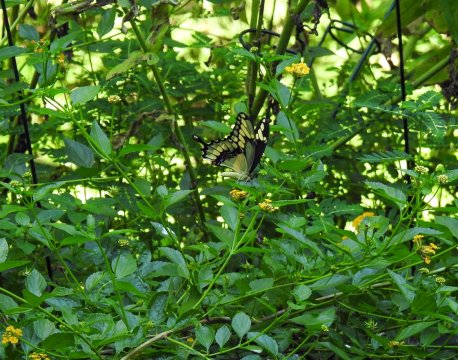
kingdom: Animalia
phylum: Arthropoda
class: Insecta
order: Lepidoptera
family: Papilionidae
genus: Papilio
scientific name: Papilio cresphontes
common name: Eastern Giant Swallowtail
